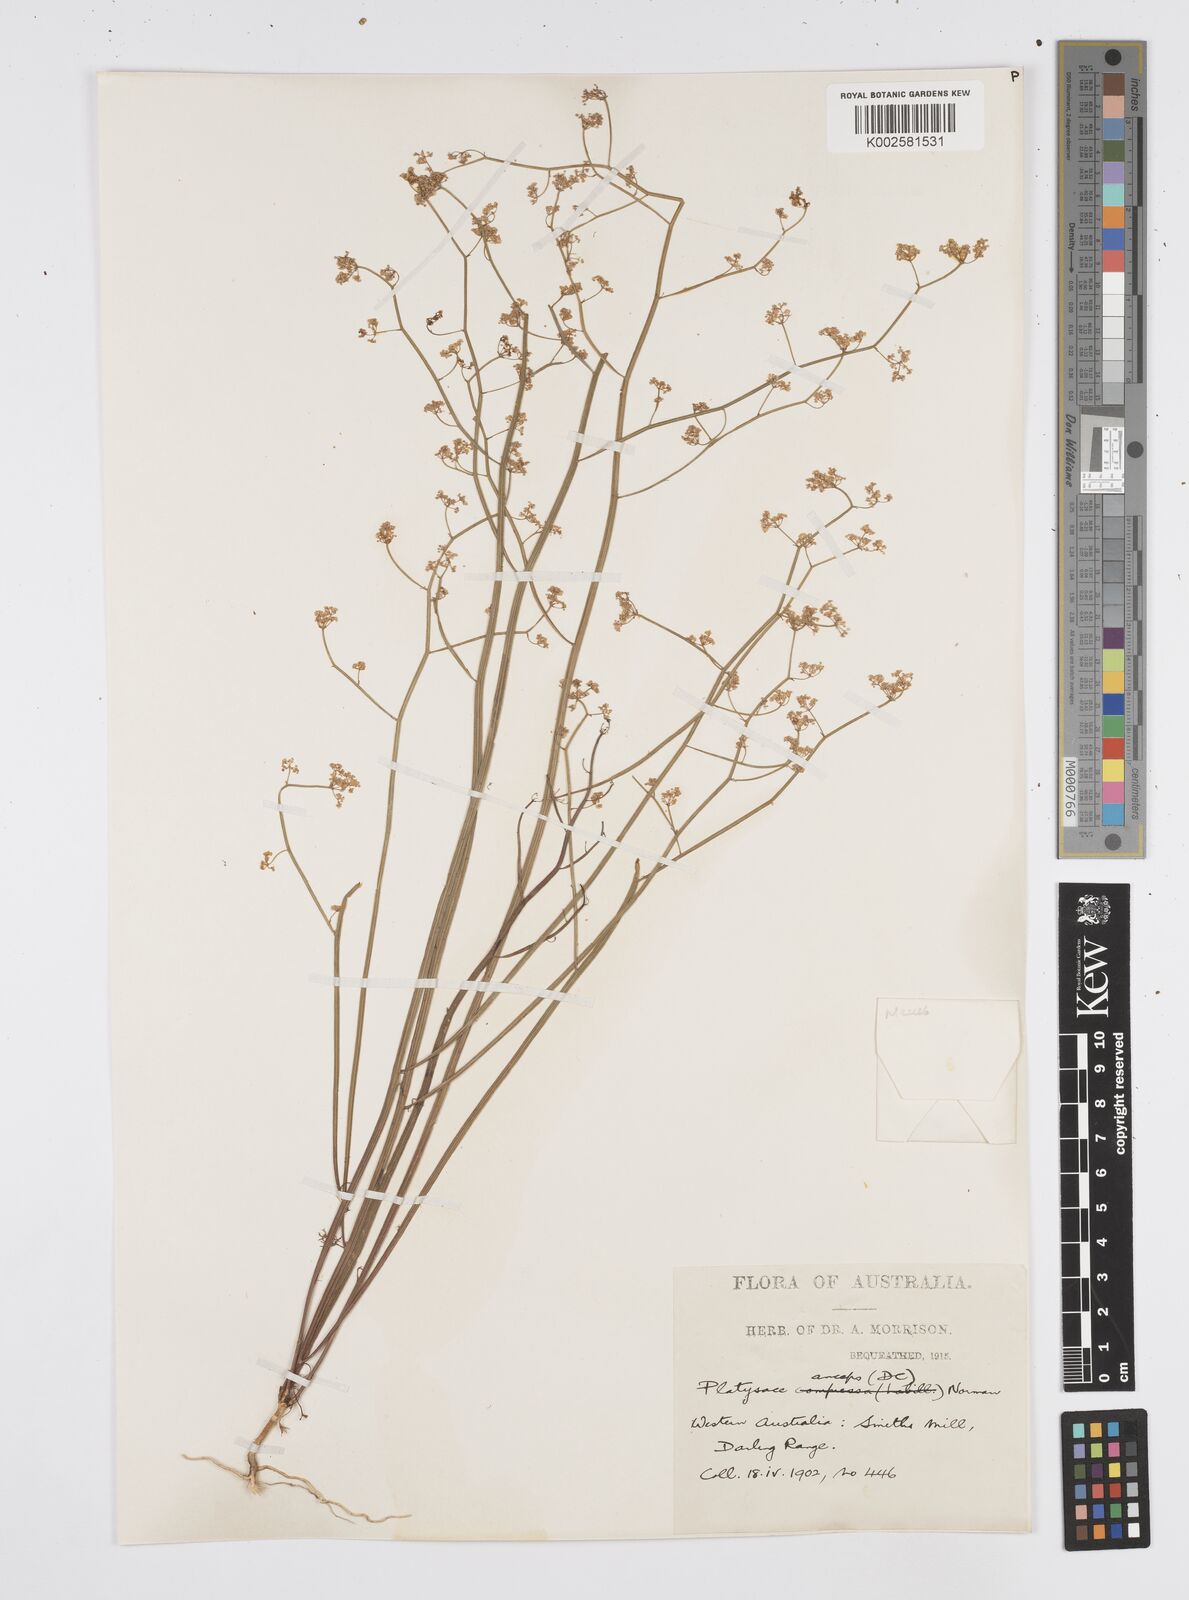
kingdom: Plantae
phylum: Tracheophyta
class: Magnoliopsida
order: Apiales
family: Apiaceae
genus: Centella
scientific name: Centella
